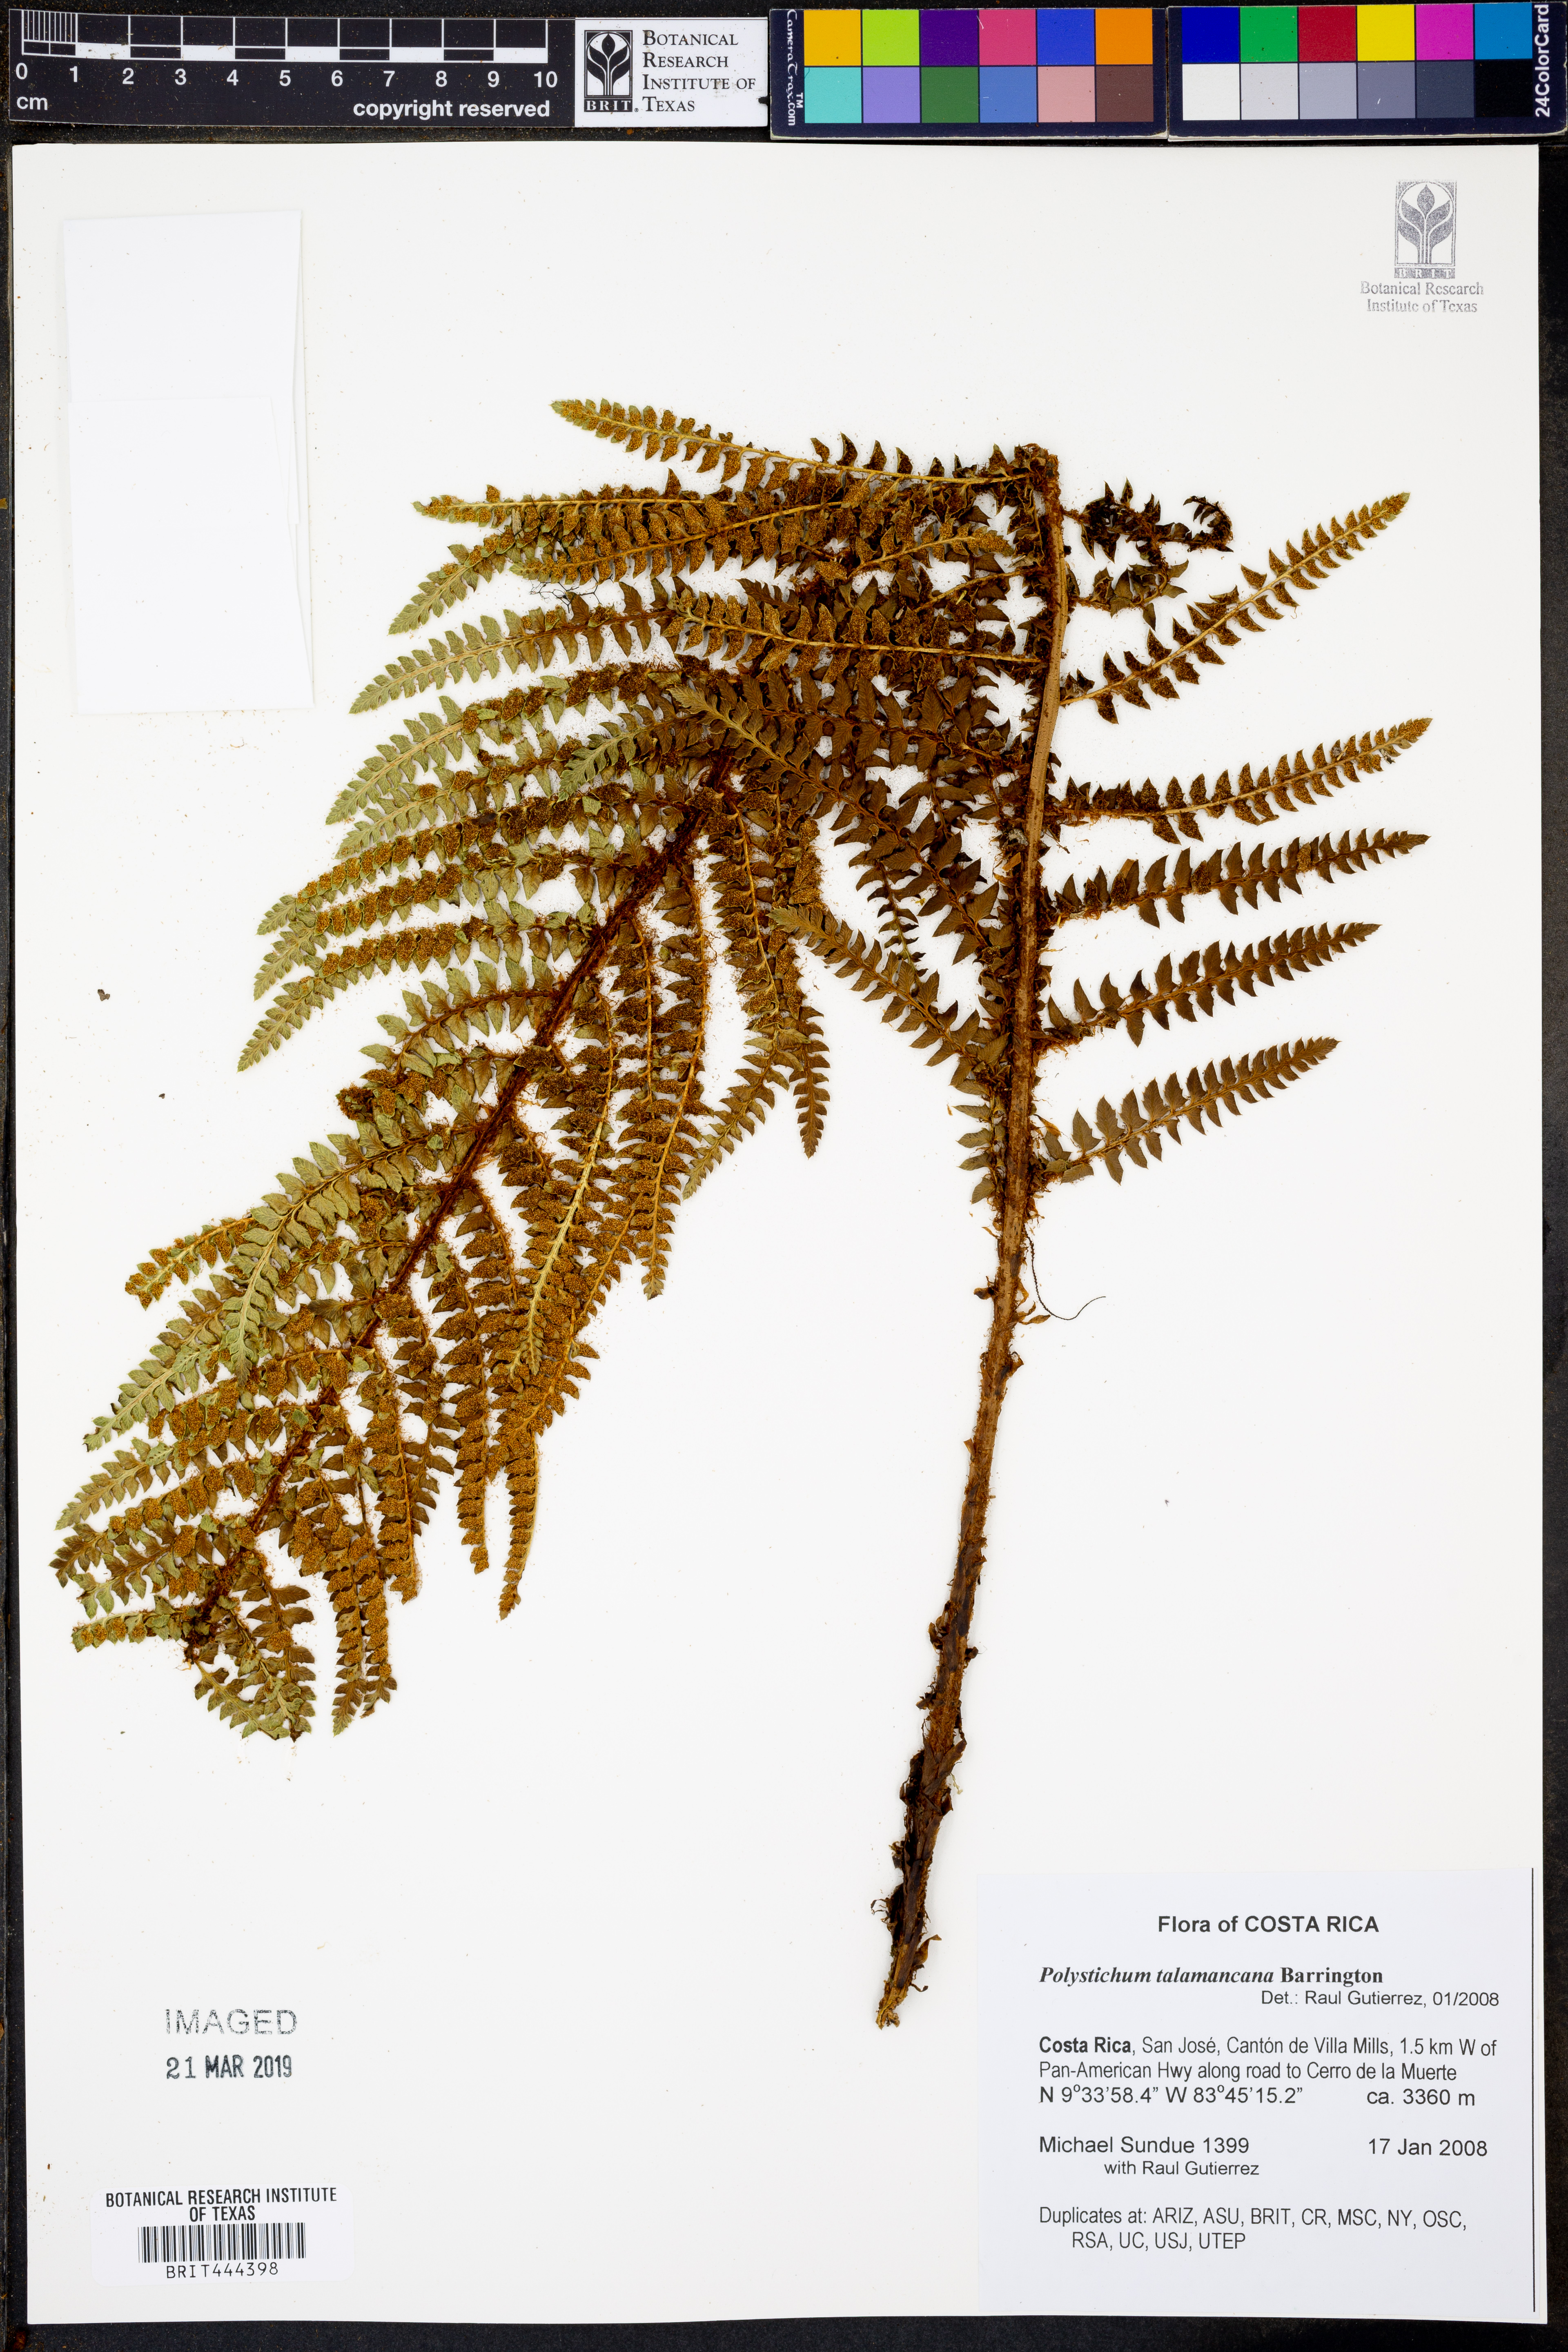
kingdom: Plantae
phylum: Tracheophyta
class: Polypodiopsida
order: Polypodiales
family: Dryopteridaceae
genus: Polystichum
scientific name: Polystichum talamancanum
